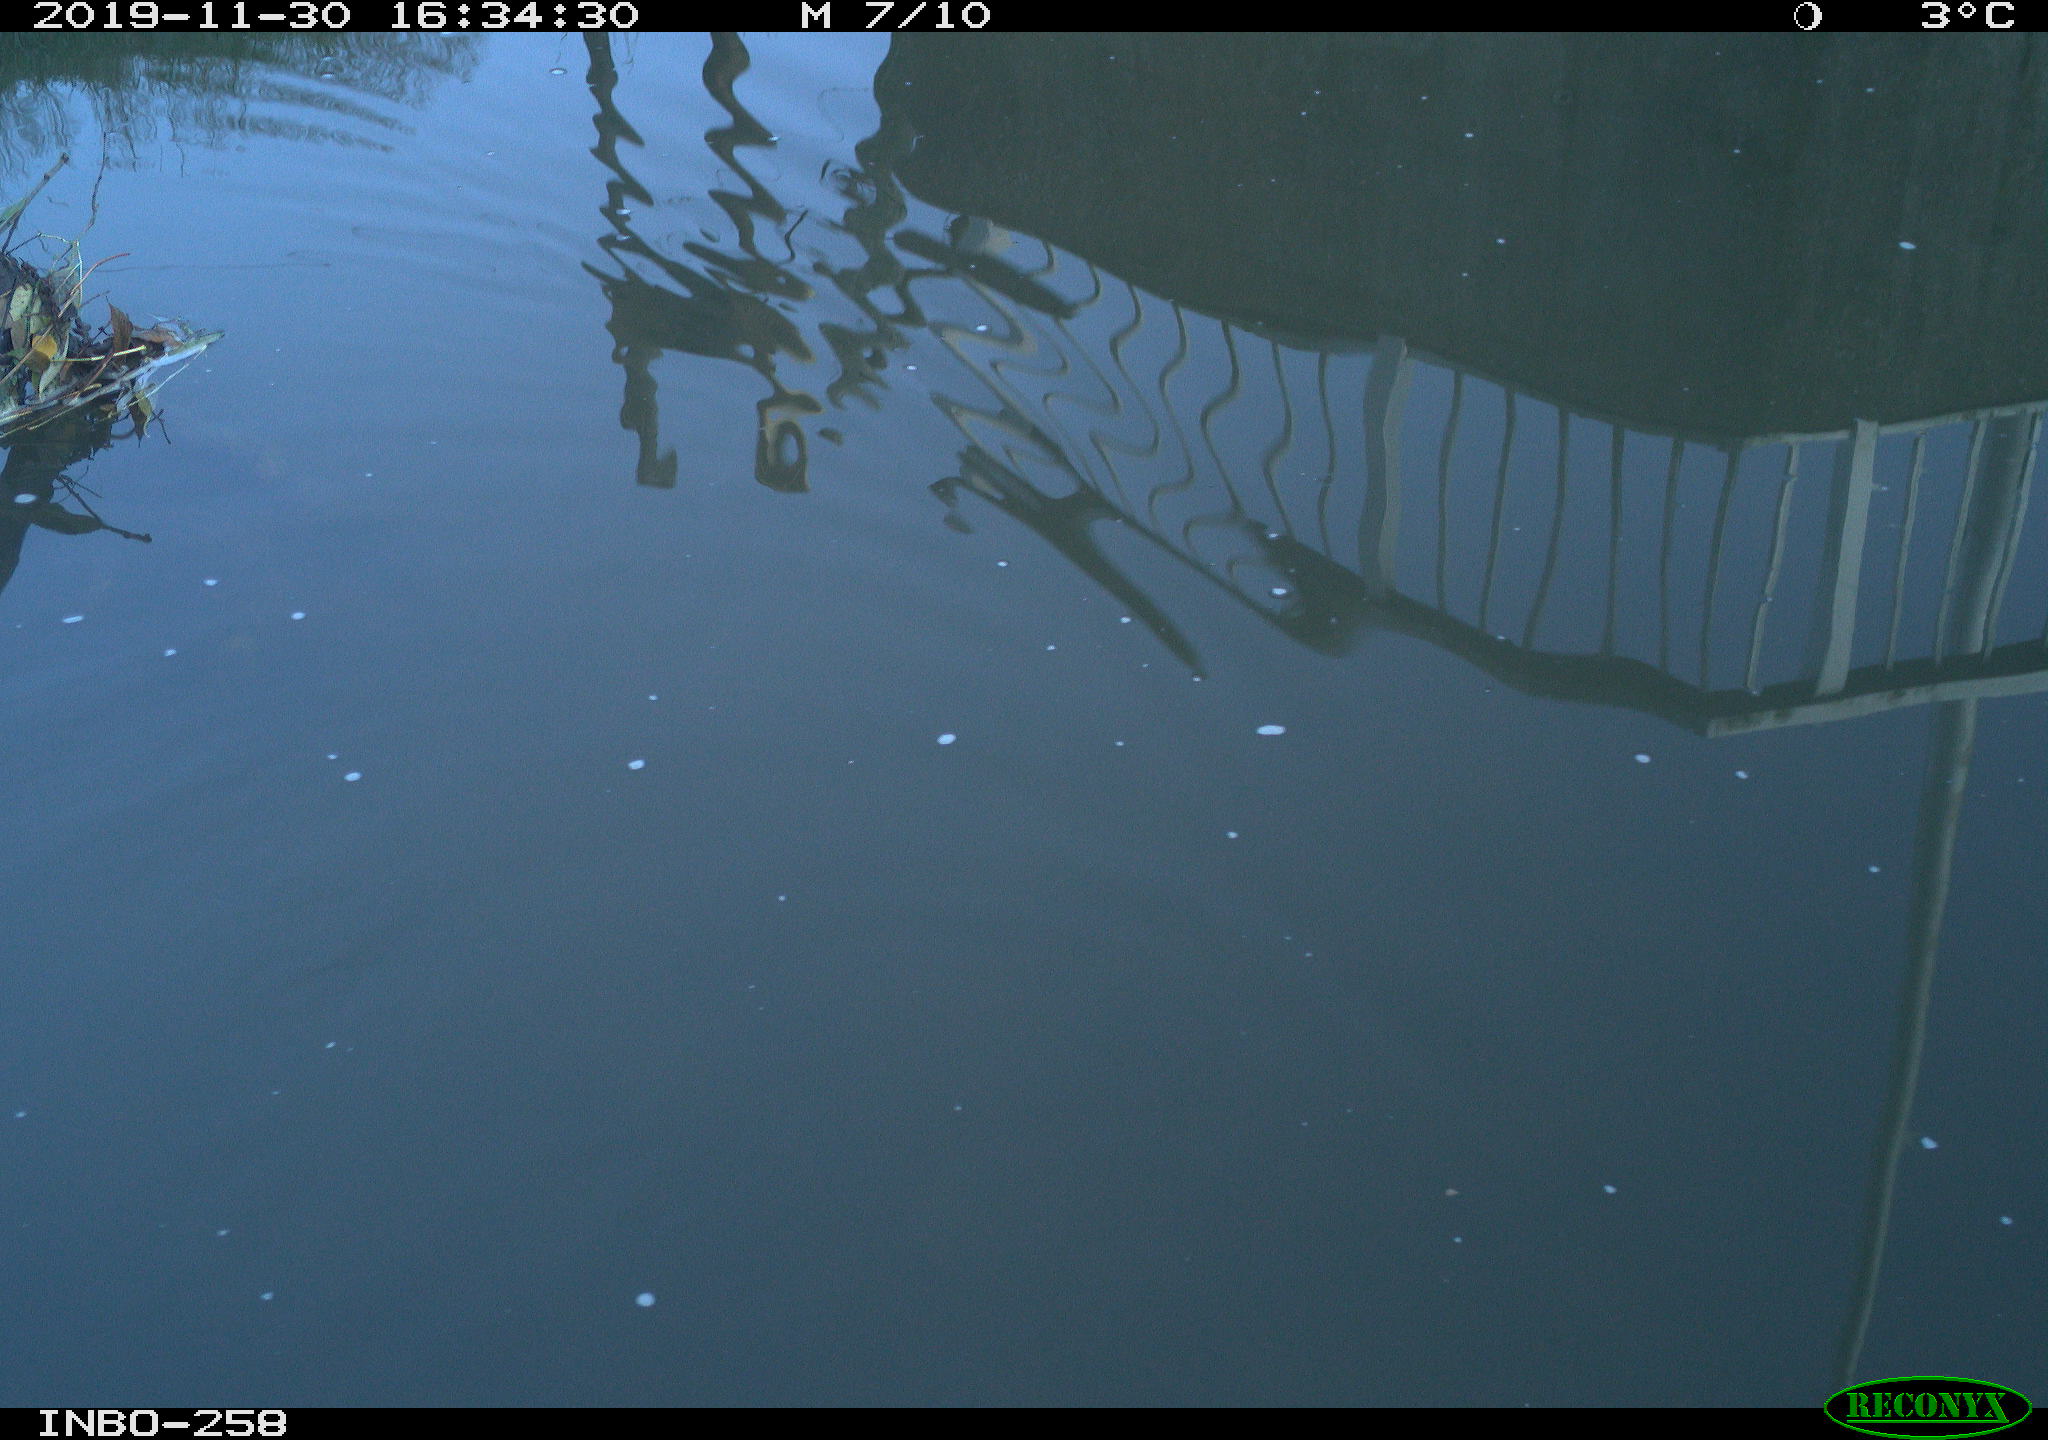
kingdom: Animalia
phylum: Chordata
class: Aves
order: Gruiformes
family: Rallidae
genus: Gallinula
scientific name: Gallinula chloropus
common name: Common moorhen
